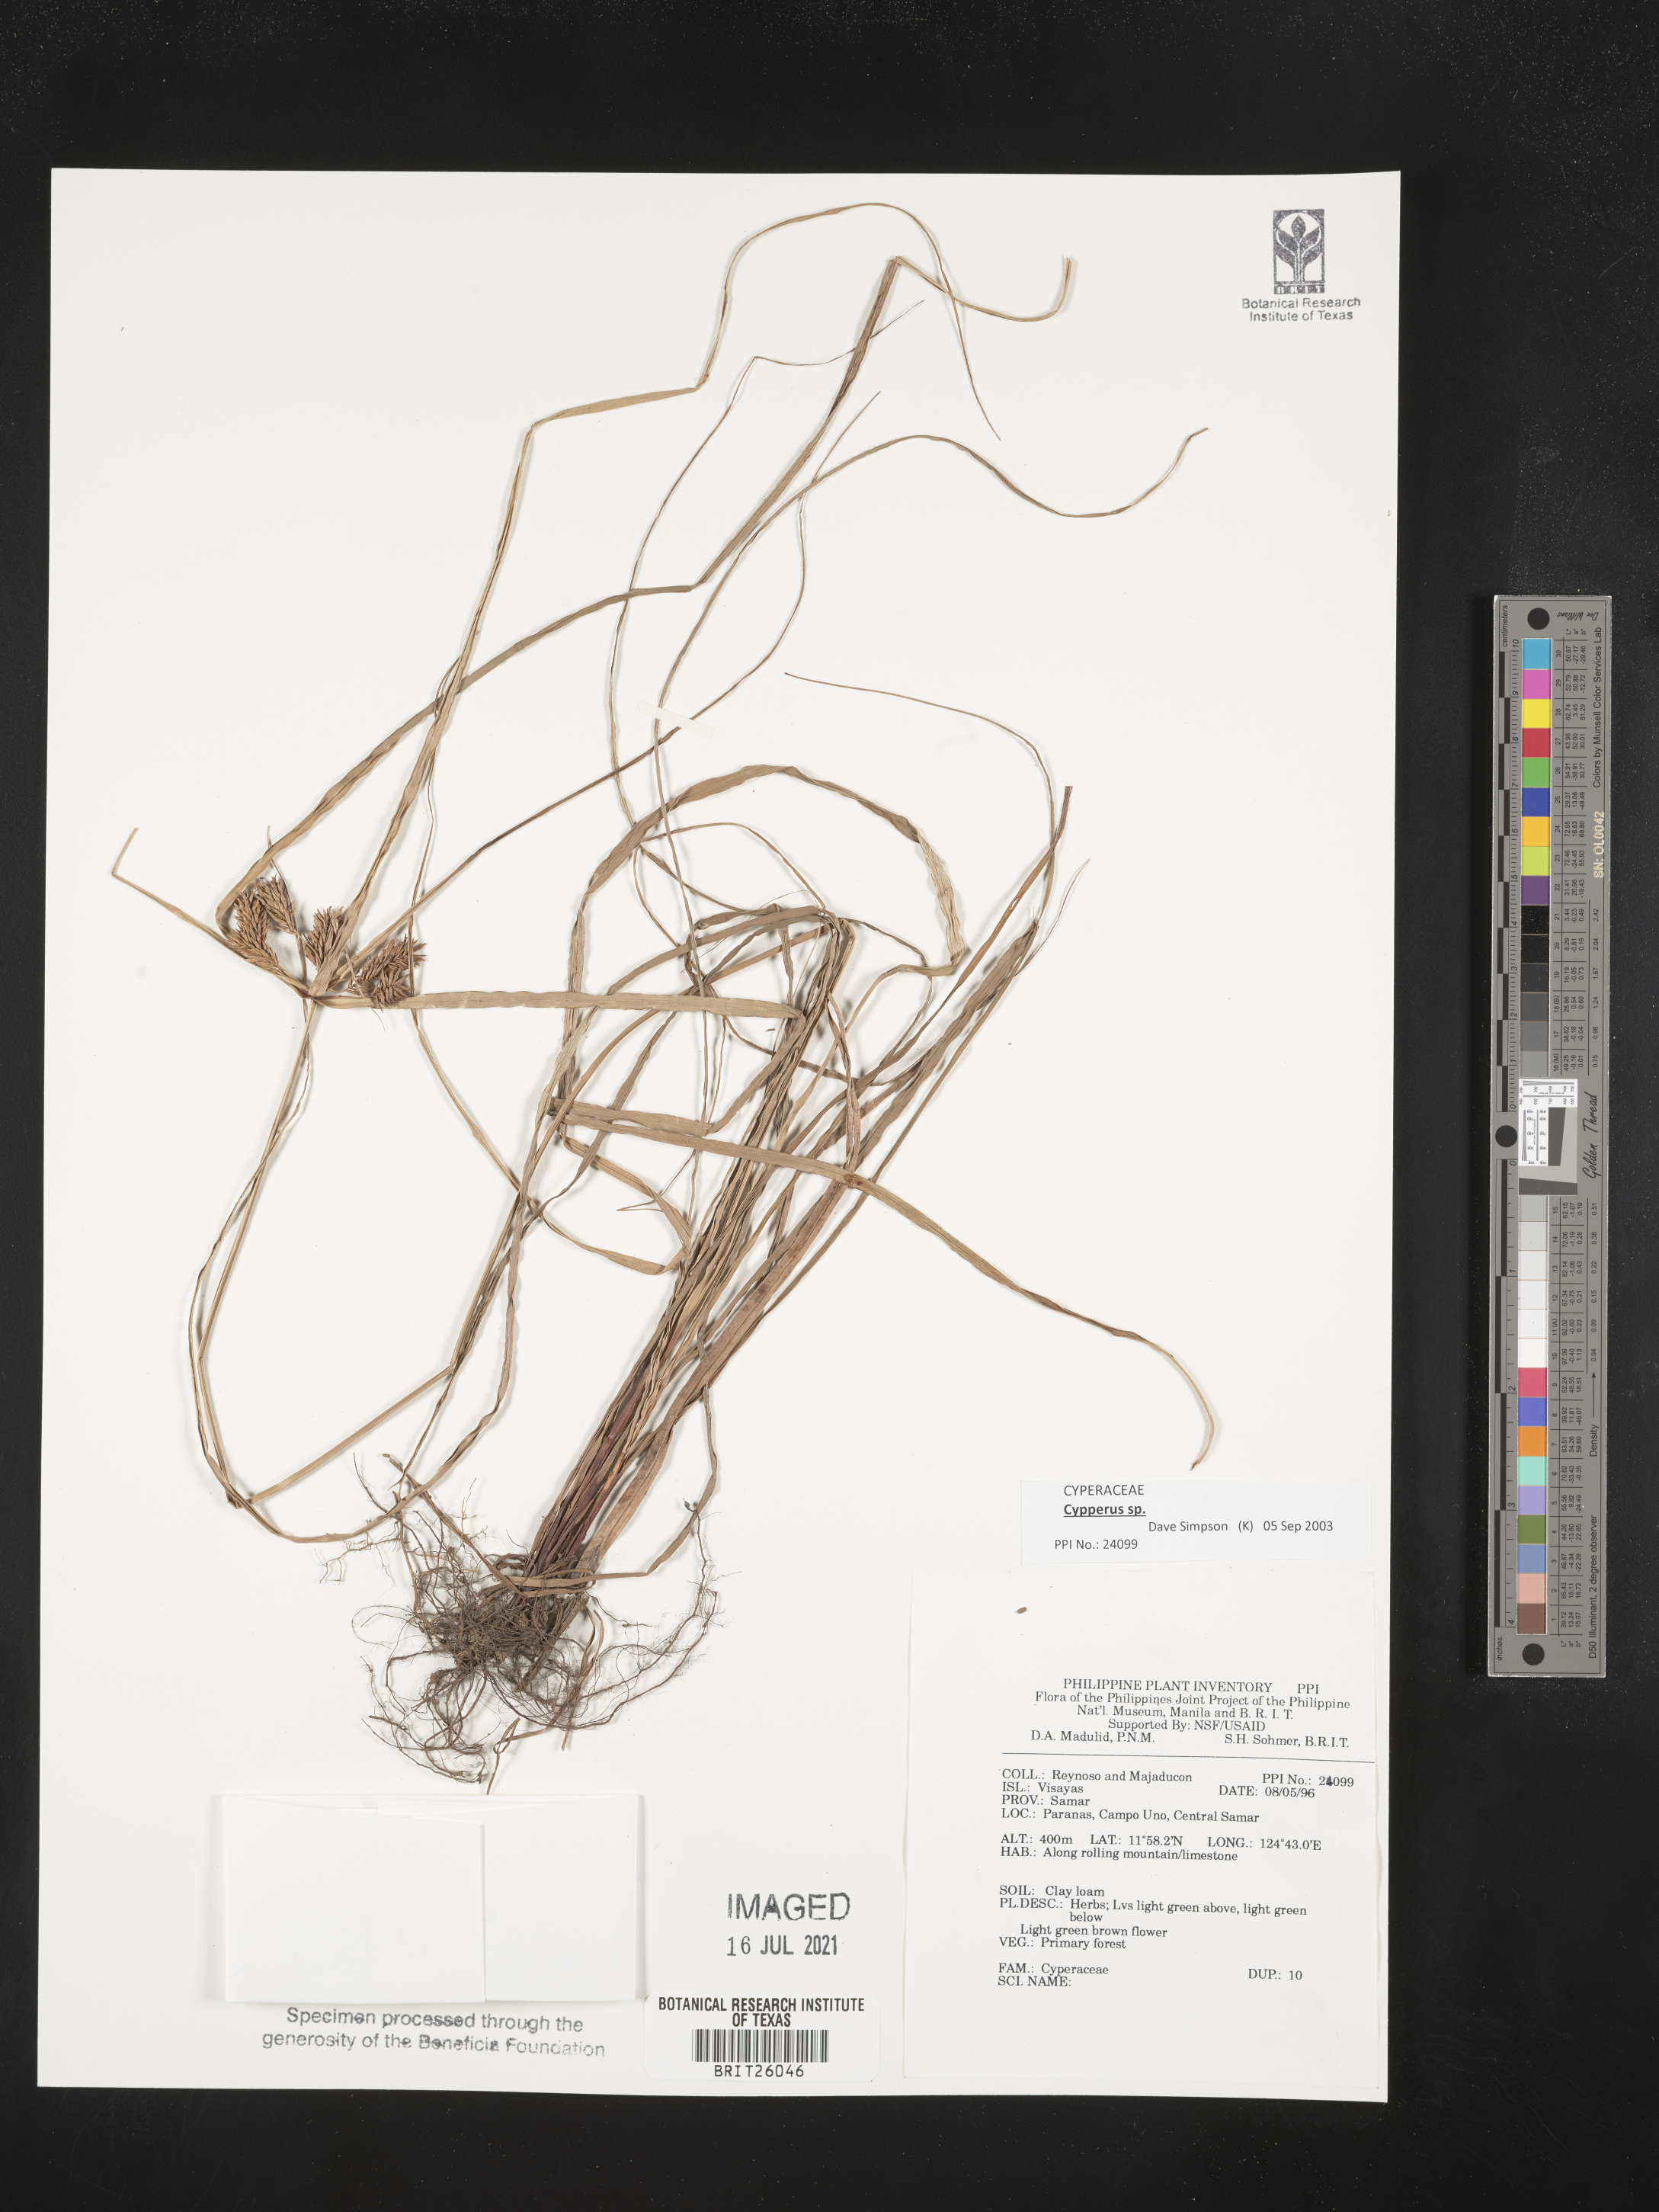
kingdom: Plantae
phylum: Tracheophyta
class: Liliopsida
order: Poales
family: Cyperaceae
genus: Cyperus
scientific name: Cyperus
